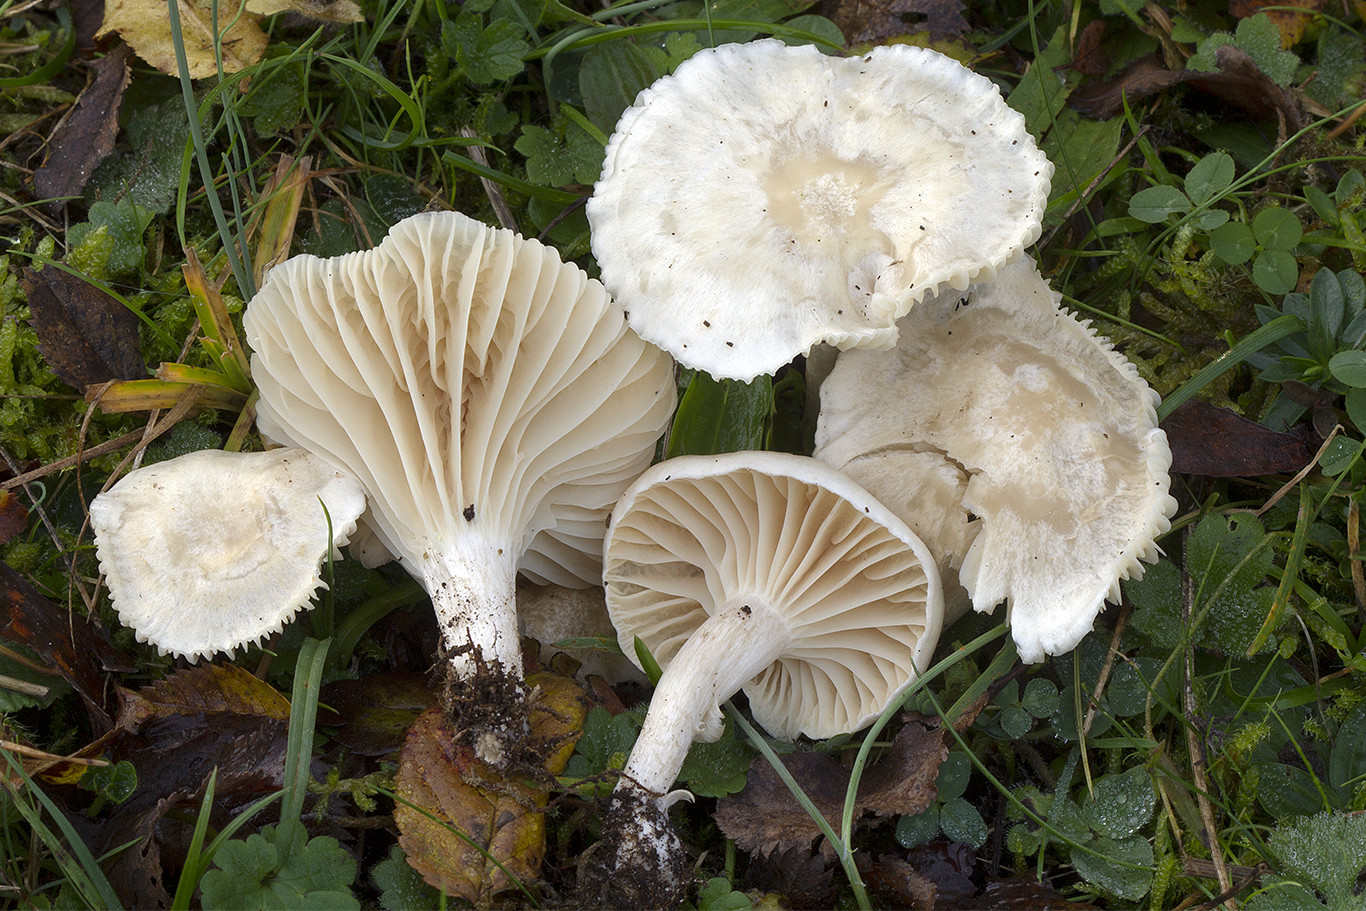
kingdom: Fungi
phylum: Basidiomycota
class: Agaricomycetes
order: Agaricales
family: Hygrophoraceae
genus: Cuphophyllus
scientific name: Cuphophyllus pratensis
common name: bleg vokshat
